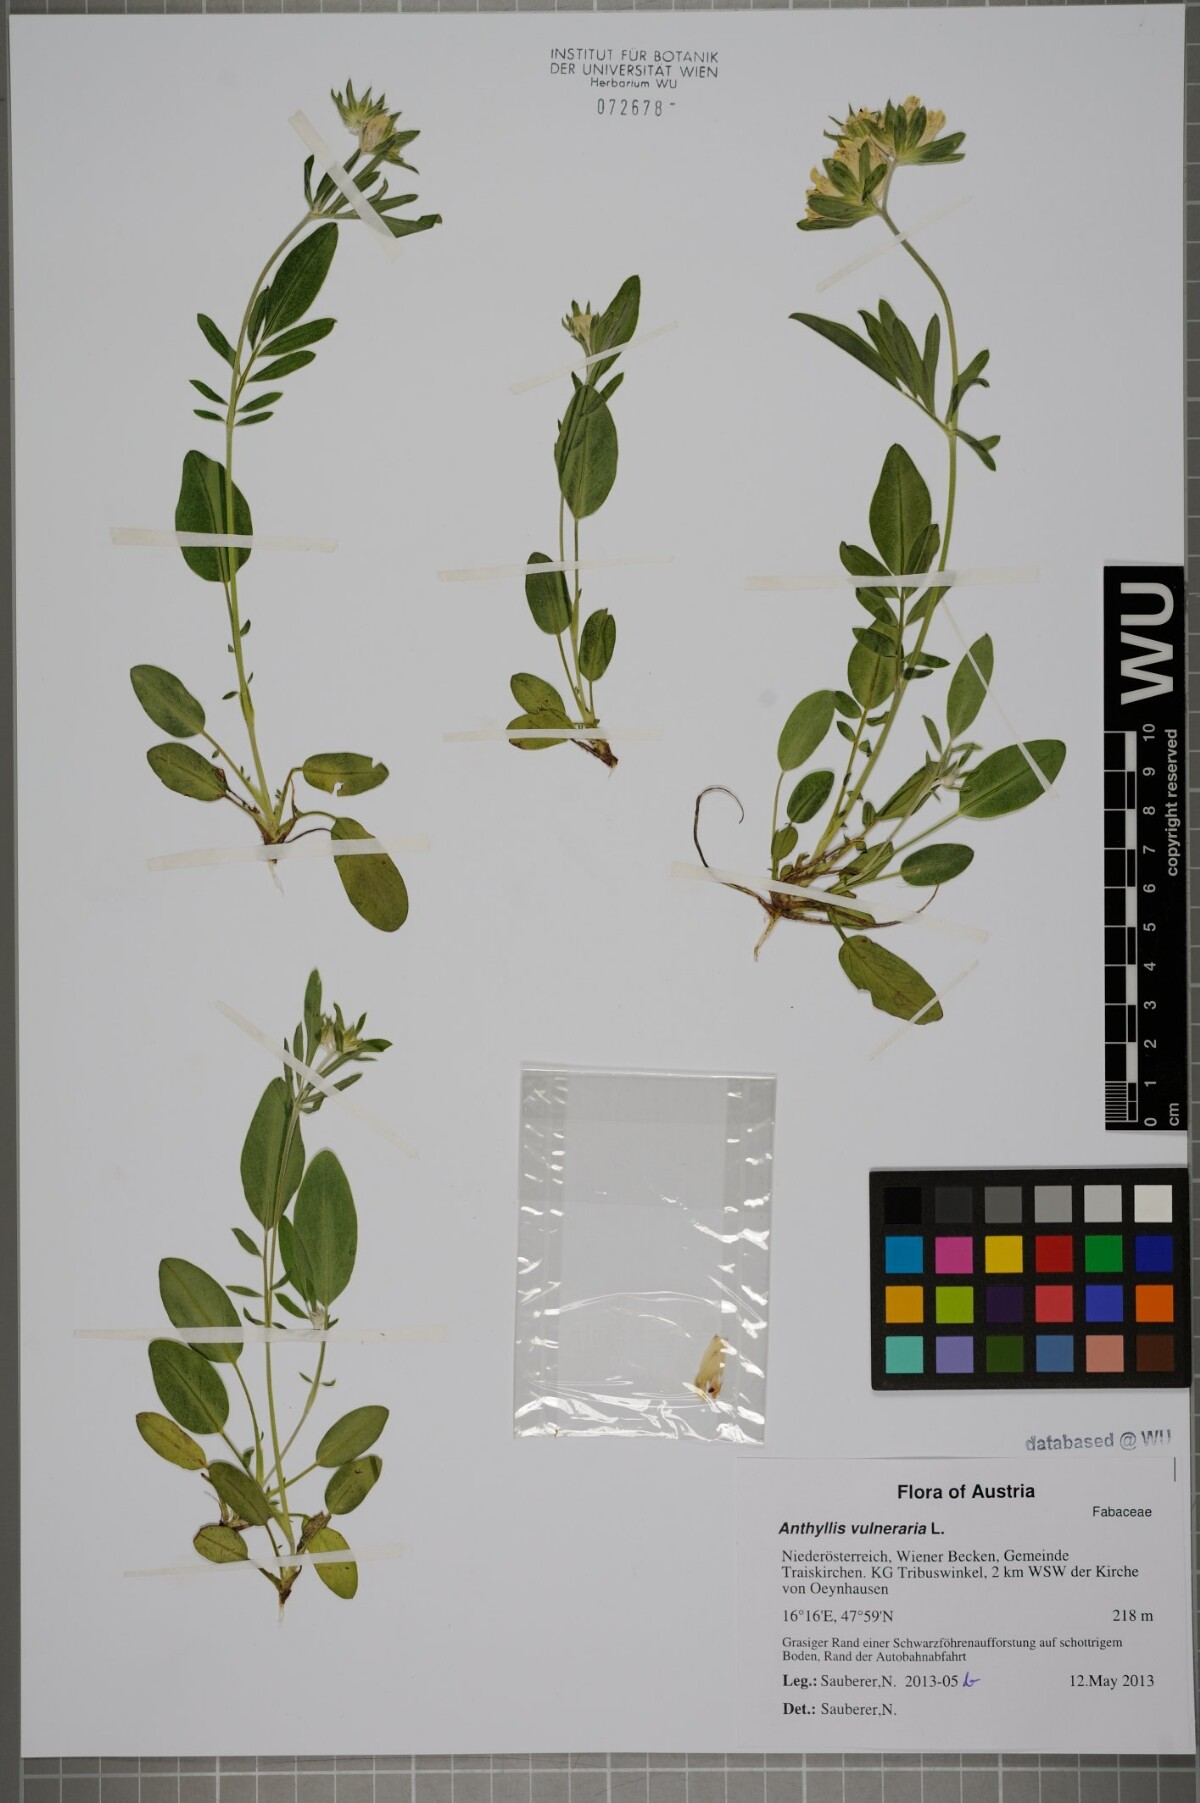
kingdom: Plantae
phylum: Tracheophyta
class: Magnoliopsida
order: Fabales
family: Fabaceae
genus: Anthyllis
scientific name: Anthyllis vulneraria
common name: Kidney vetch
